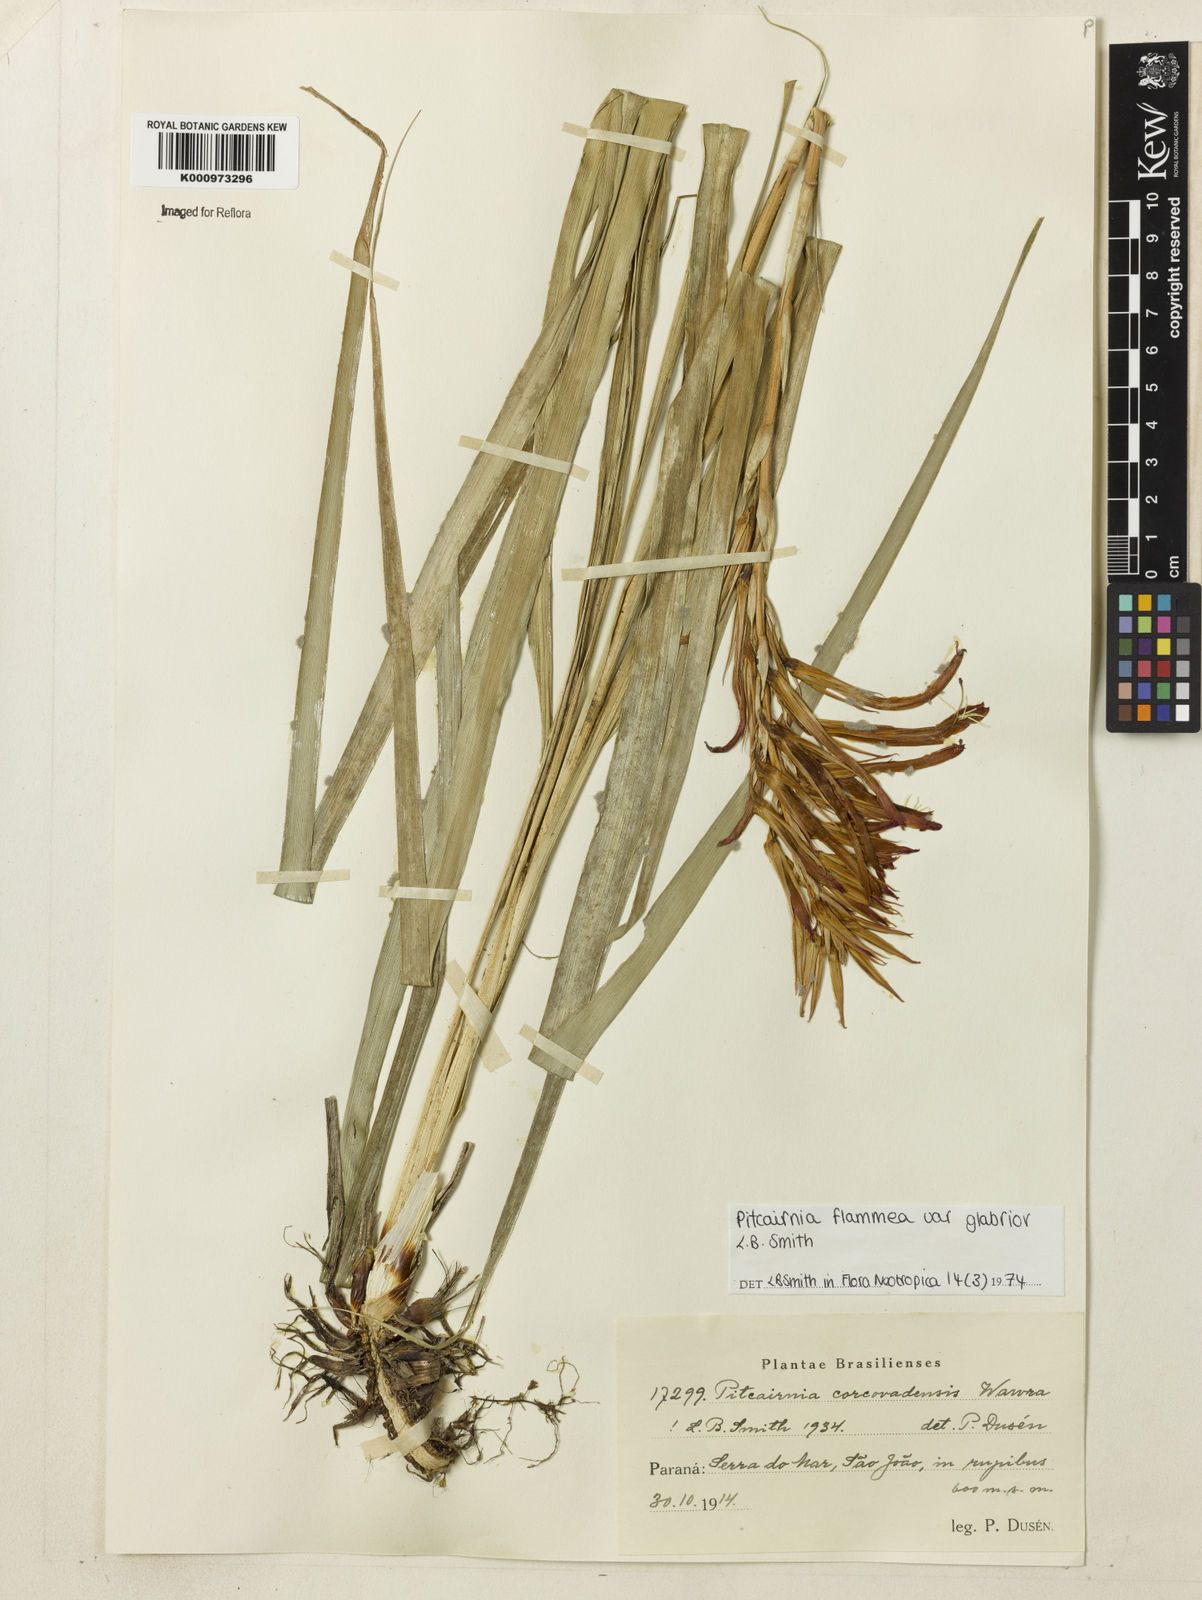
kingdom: Plantae
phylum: Tracheophyta
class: Liliopsida
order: Poales
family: Bromeliaceae
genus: Pitcairnia
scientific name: Pitcairnia flammea
